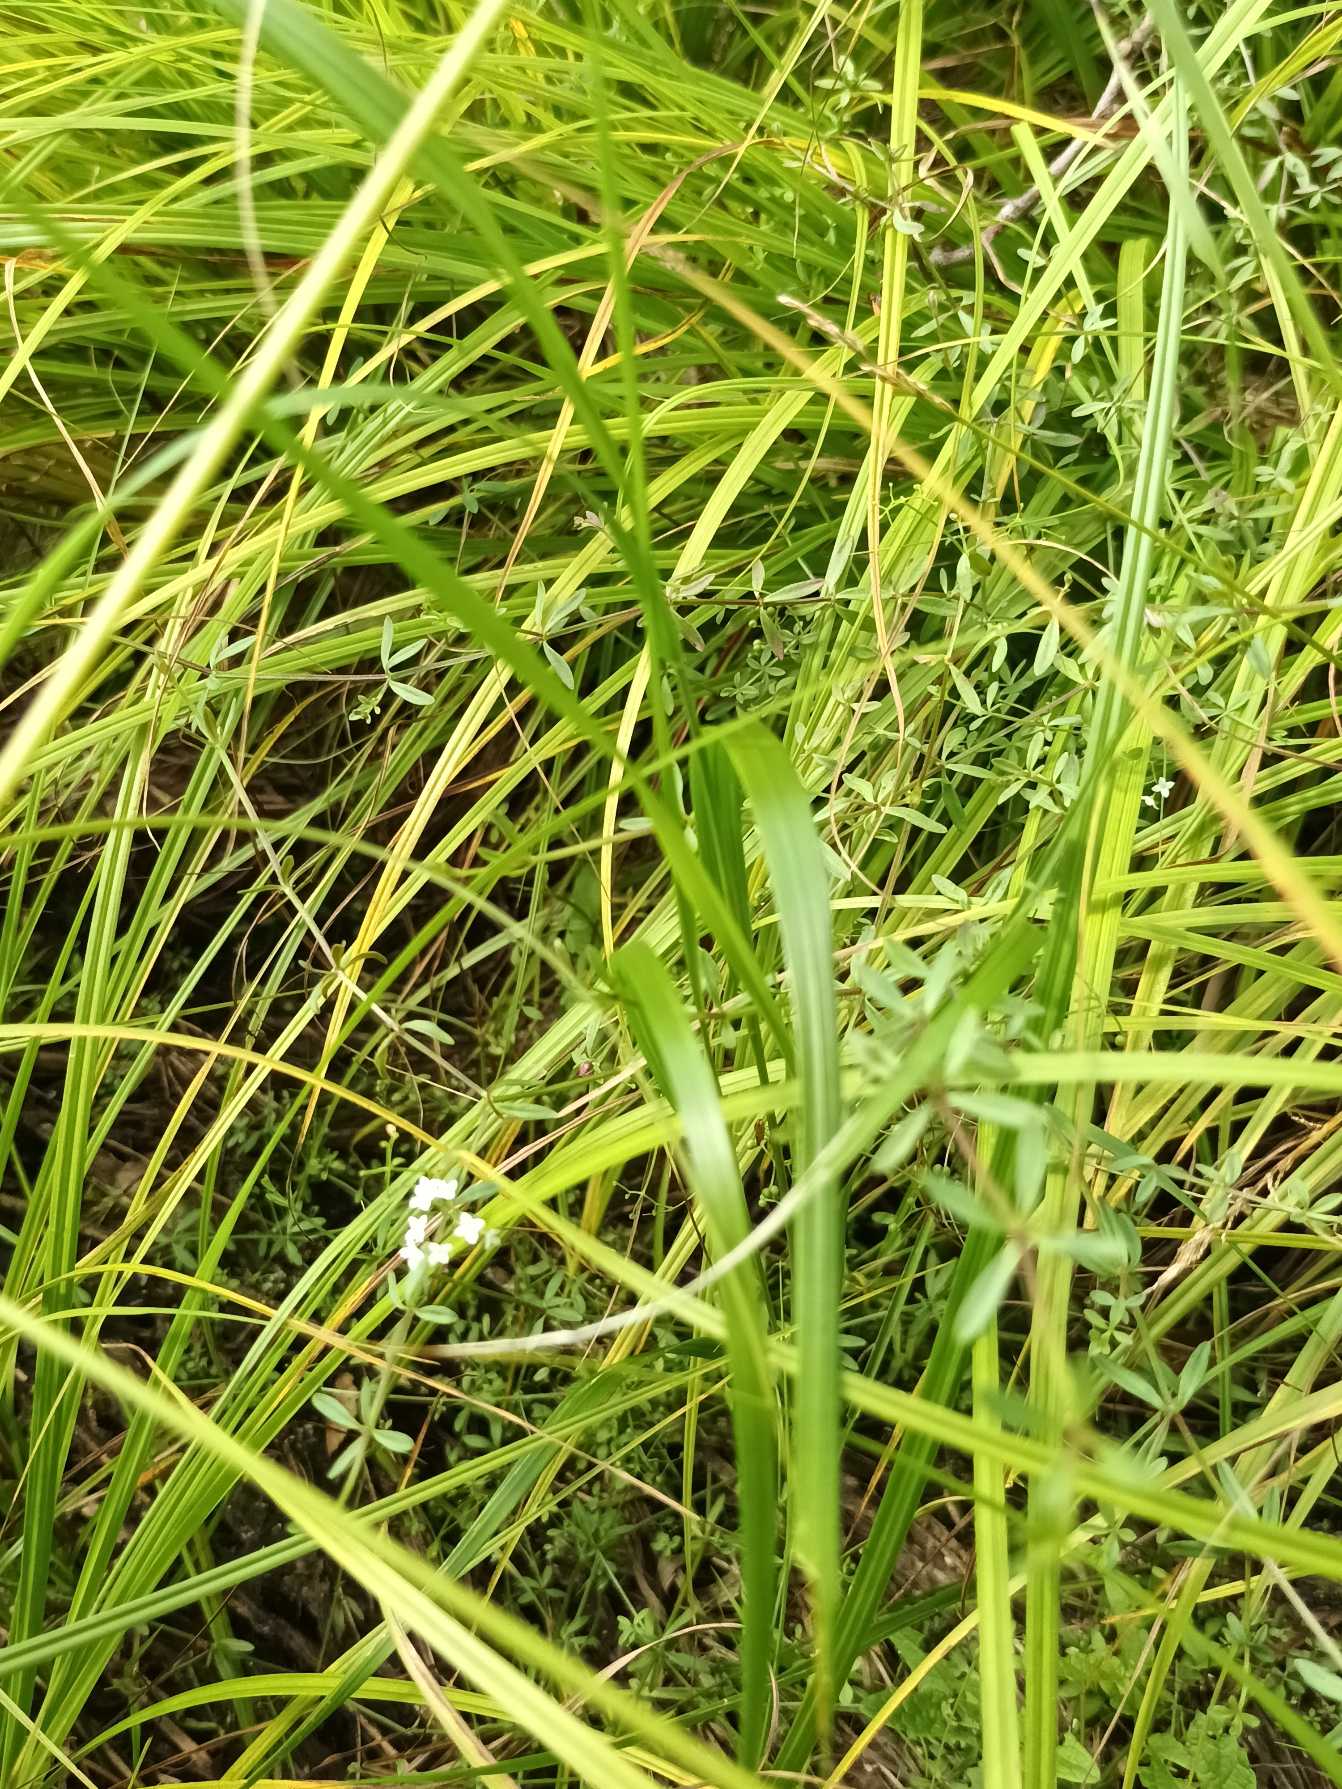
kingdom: Plantae
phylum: Tracheophyta
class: Magnoliopsida
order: Gentianales
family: Rubiaceae
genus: Galium
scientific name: Galium palustre
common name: Kær-snerre
